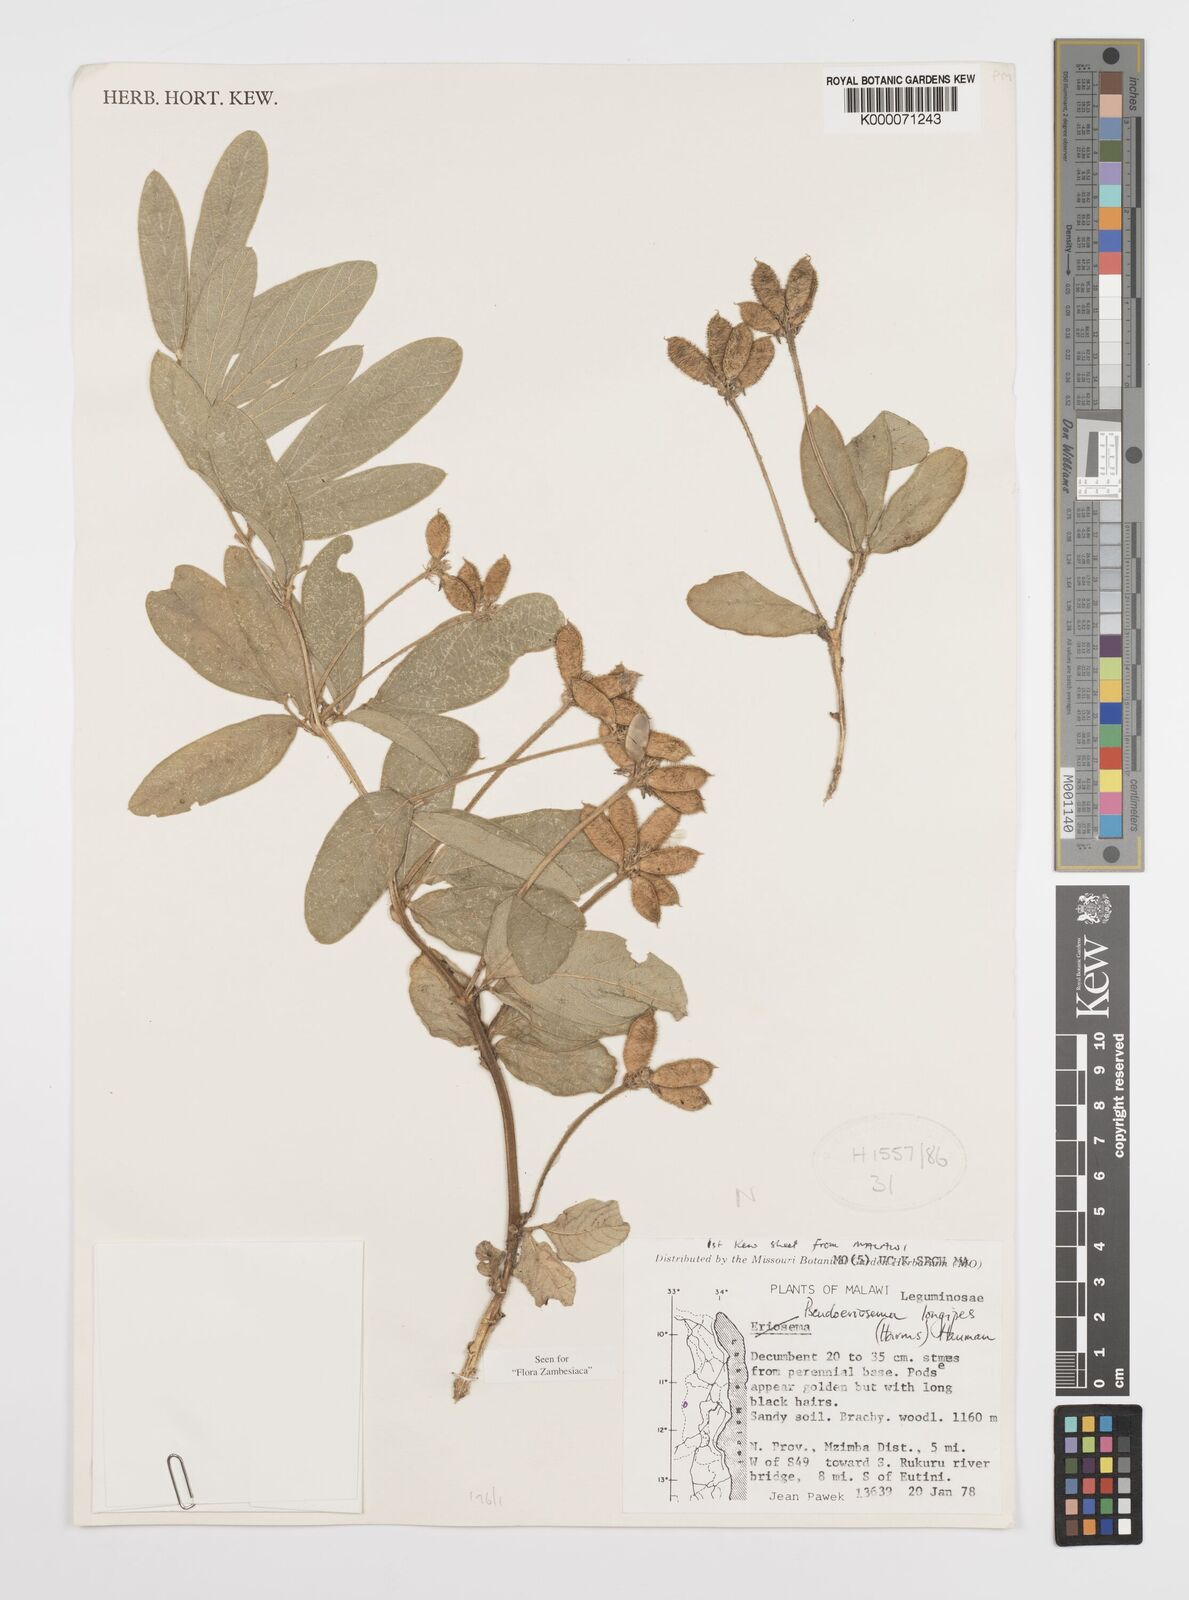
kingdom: Plantae
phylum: Tracheophyta
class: Magnoliopsida
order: Fabales
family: Fabaceae
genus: Pseudoeriosema
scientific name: Pseudoeriosema longipes
